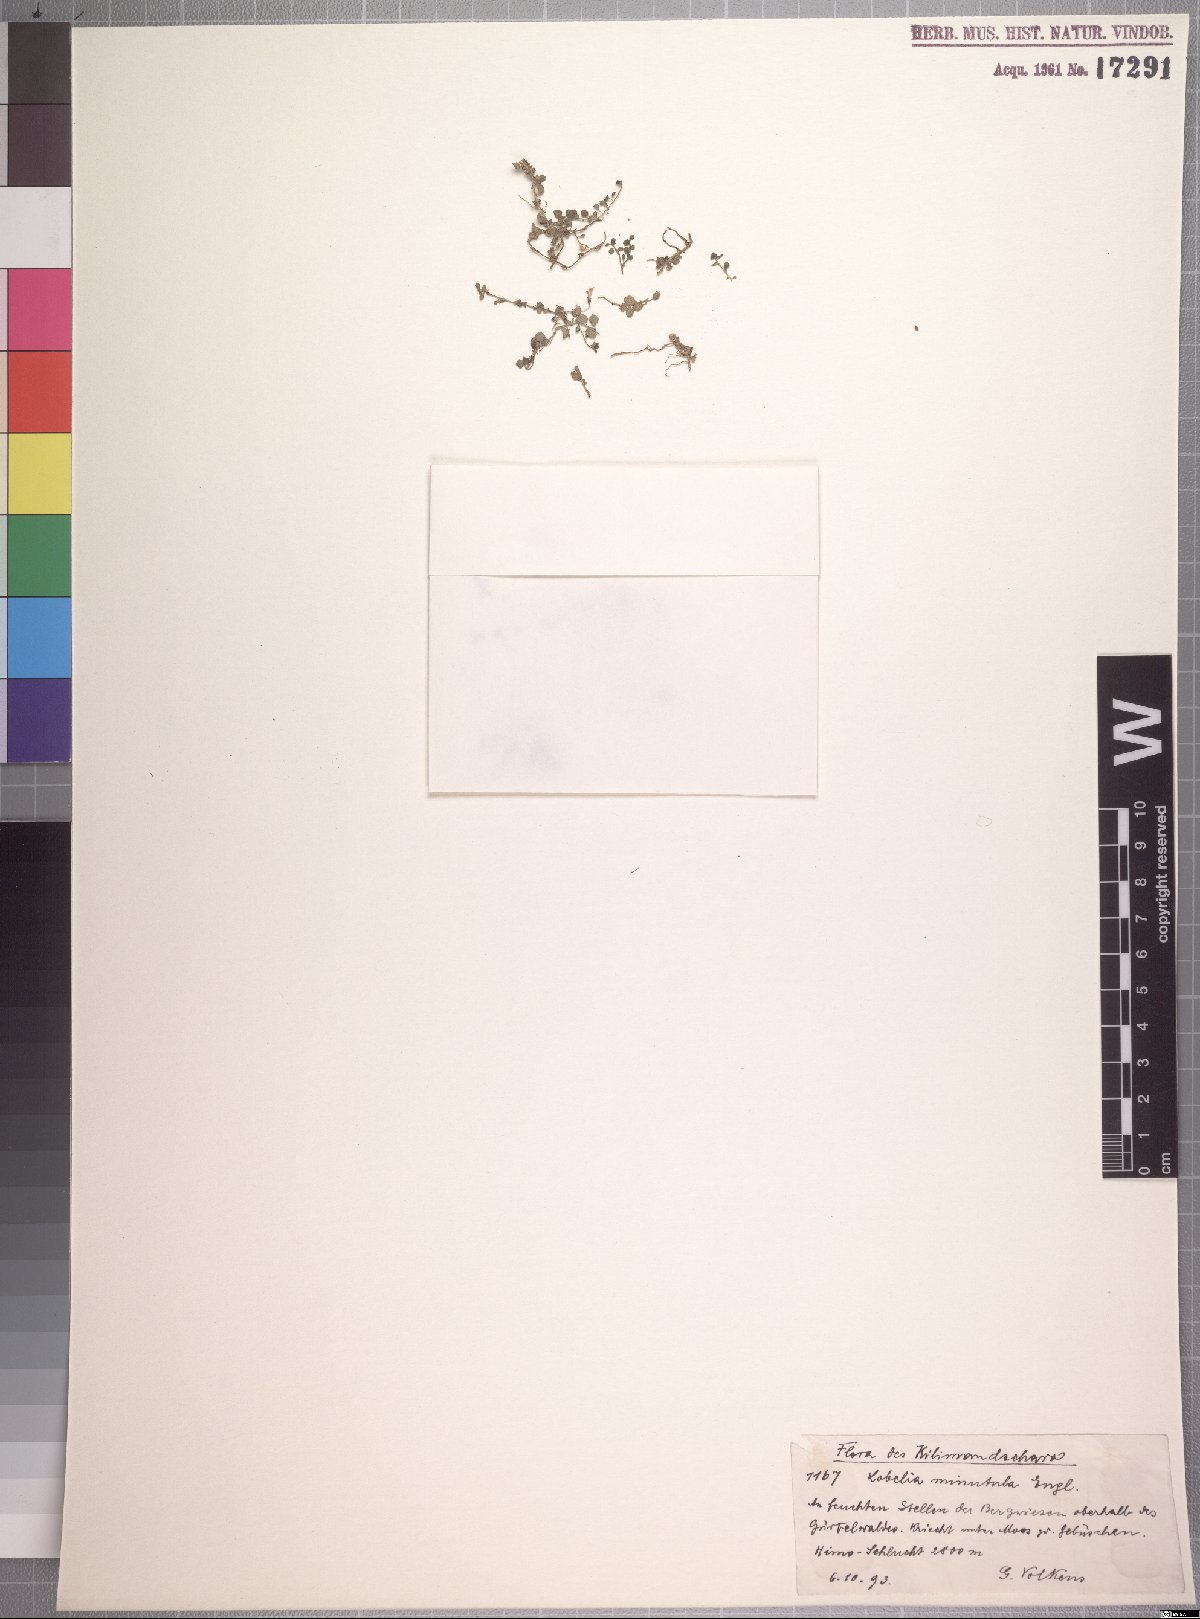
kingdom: Plantae
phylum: Tracheophyta
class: Magnoliopsida
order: Asterales
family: Campanulaceae
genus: Lobelia
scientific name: Lobelia minutula
